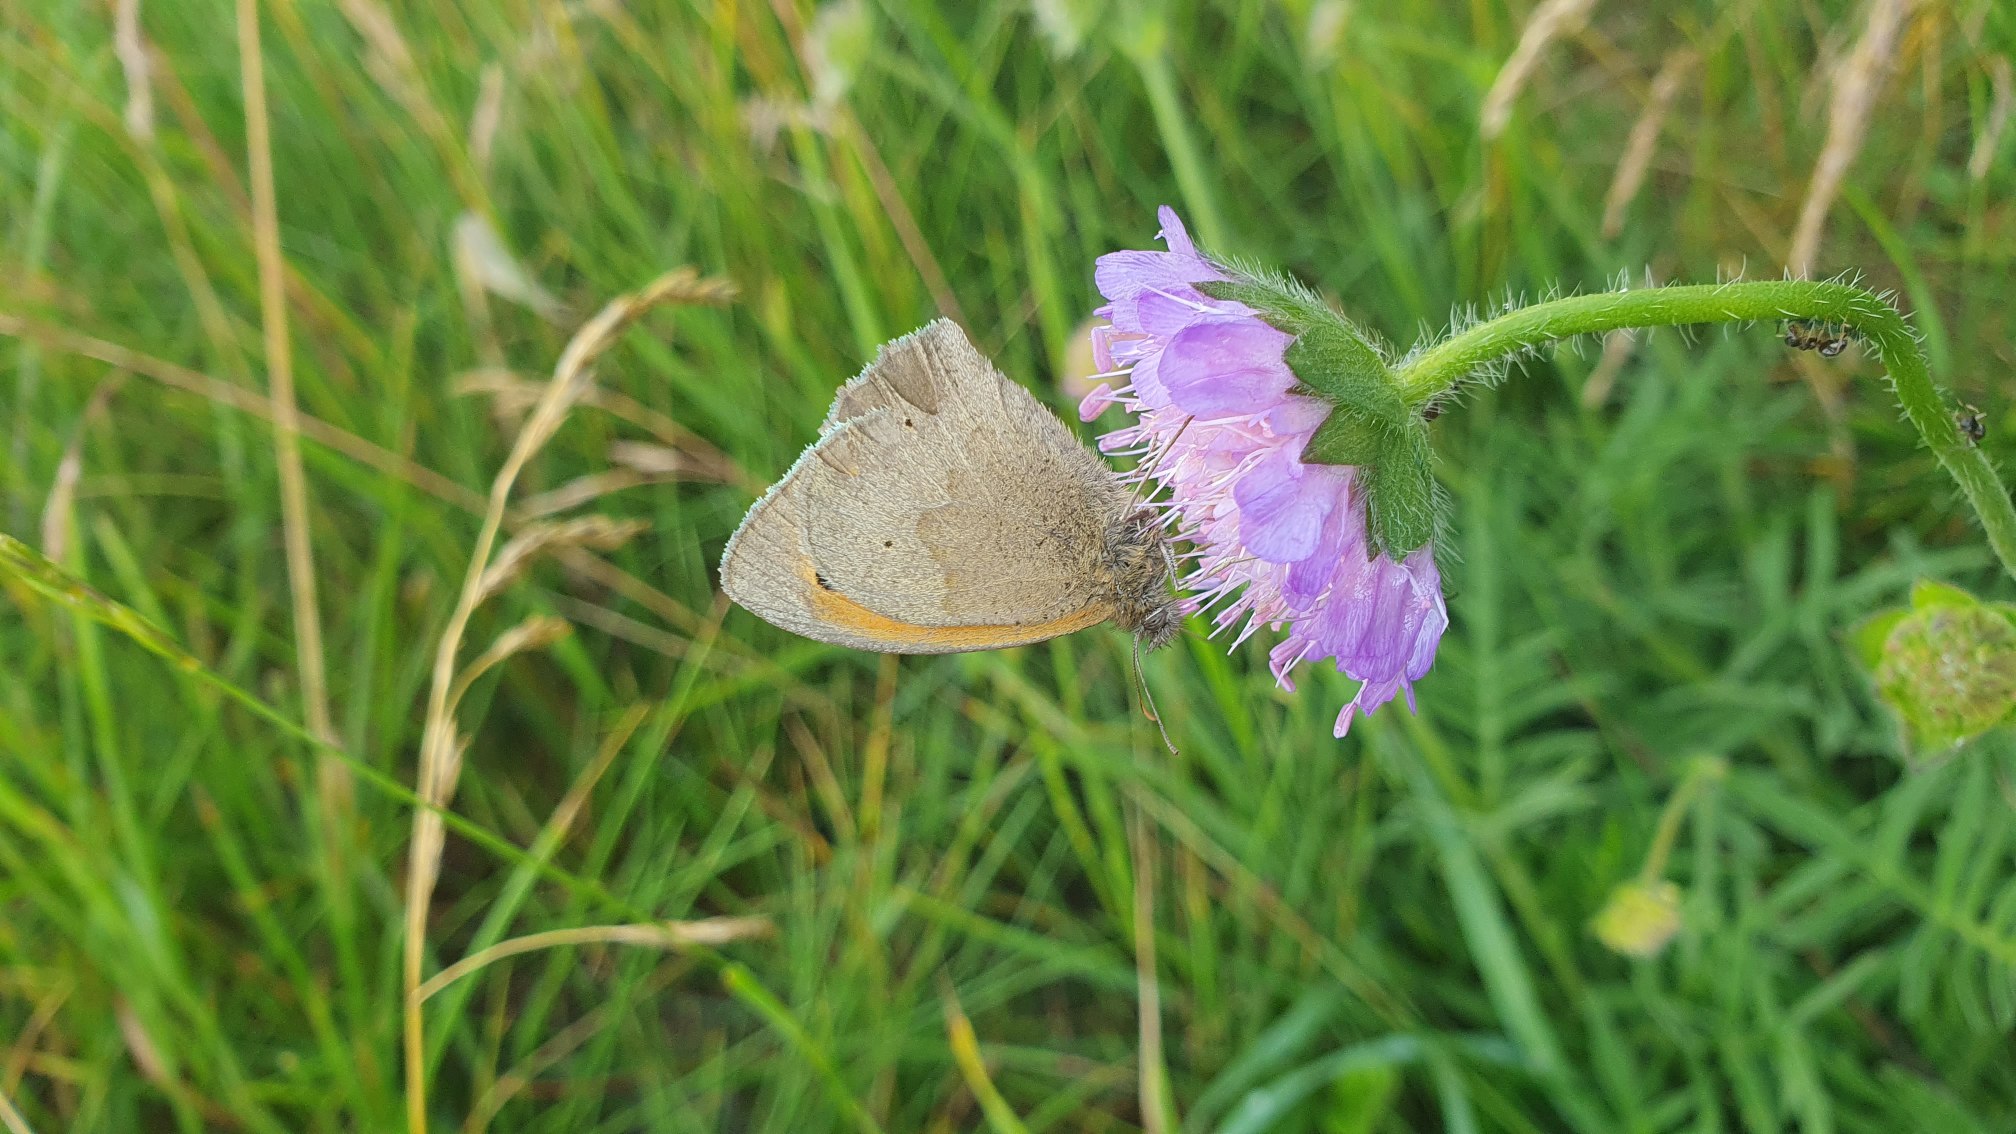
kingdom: Animalia
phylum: Arthropoda
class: Insecta
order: Lepidoptera
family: Nymphalidae
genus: Maniola
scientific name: Maniola jurtina
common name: Græsrandøje
